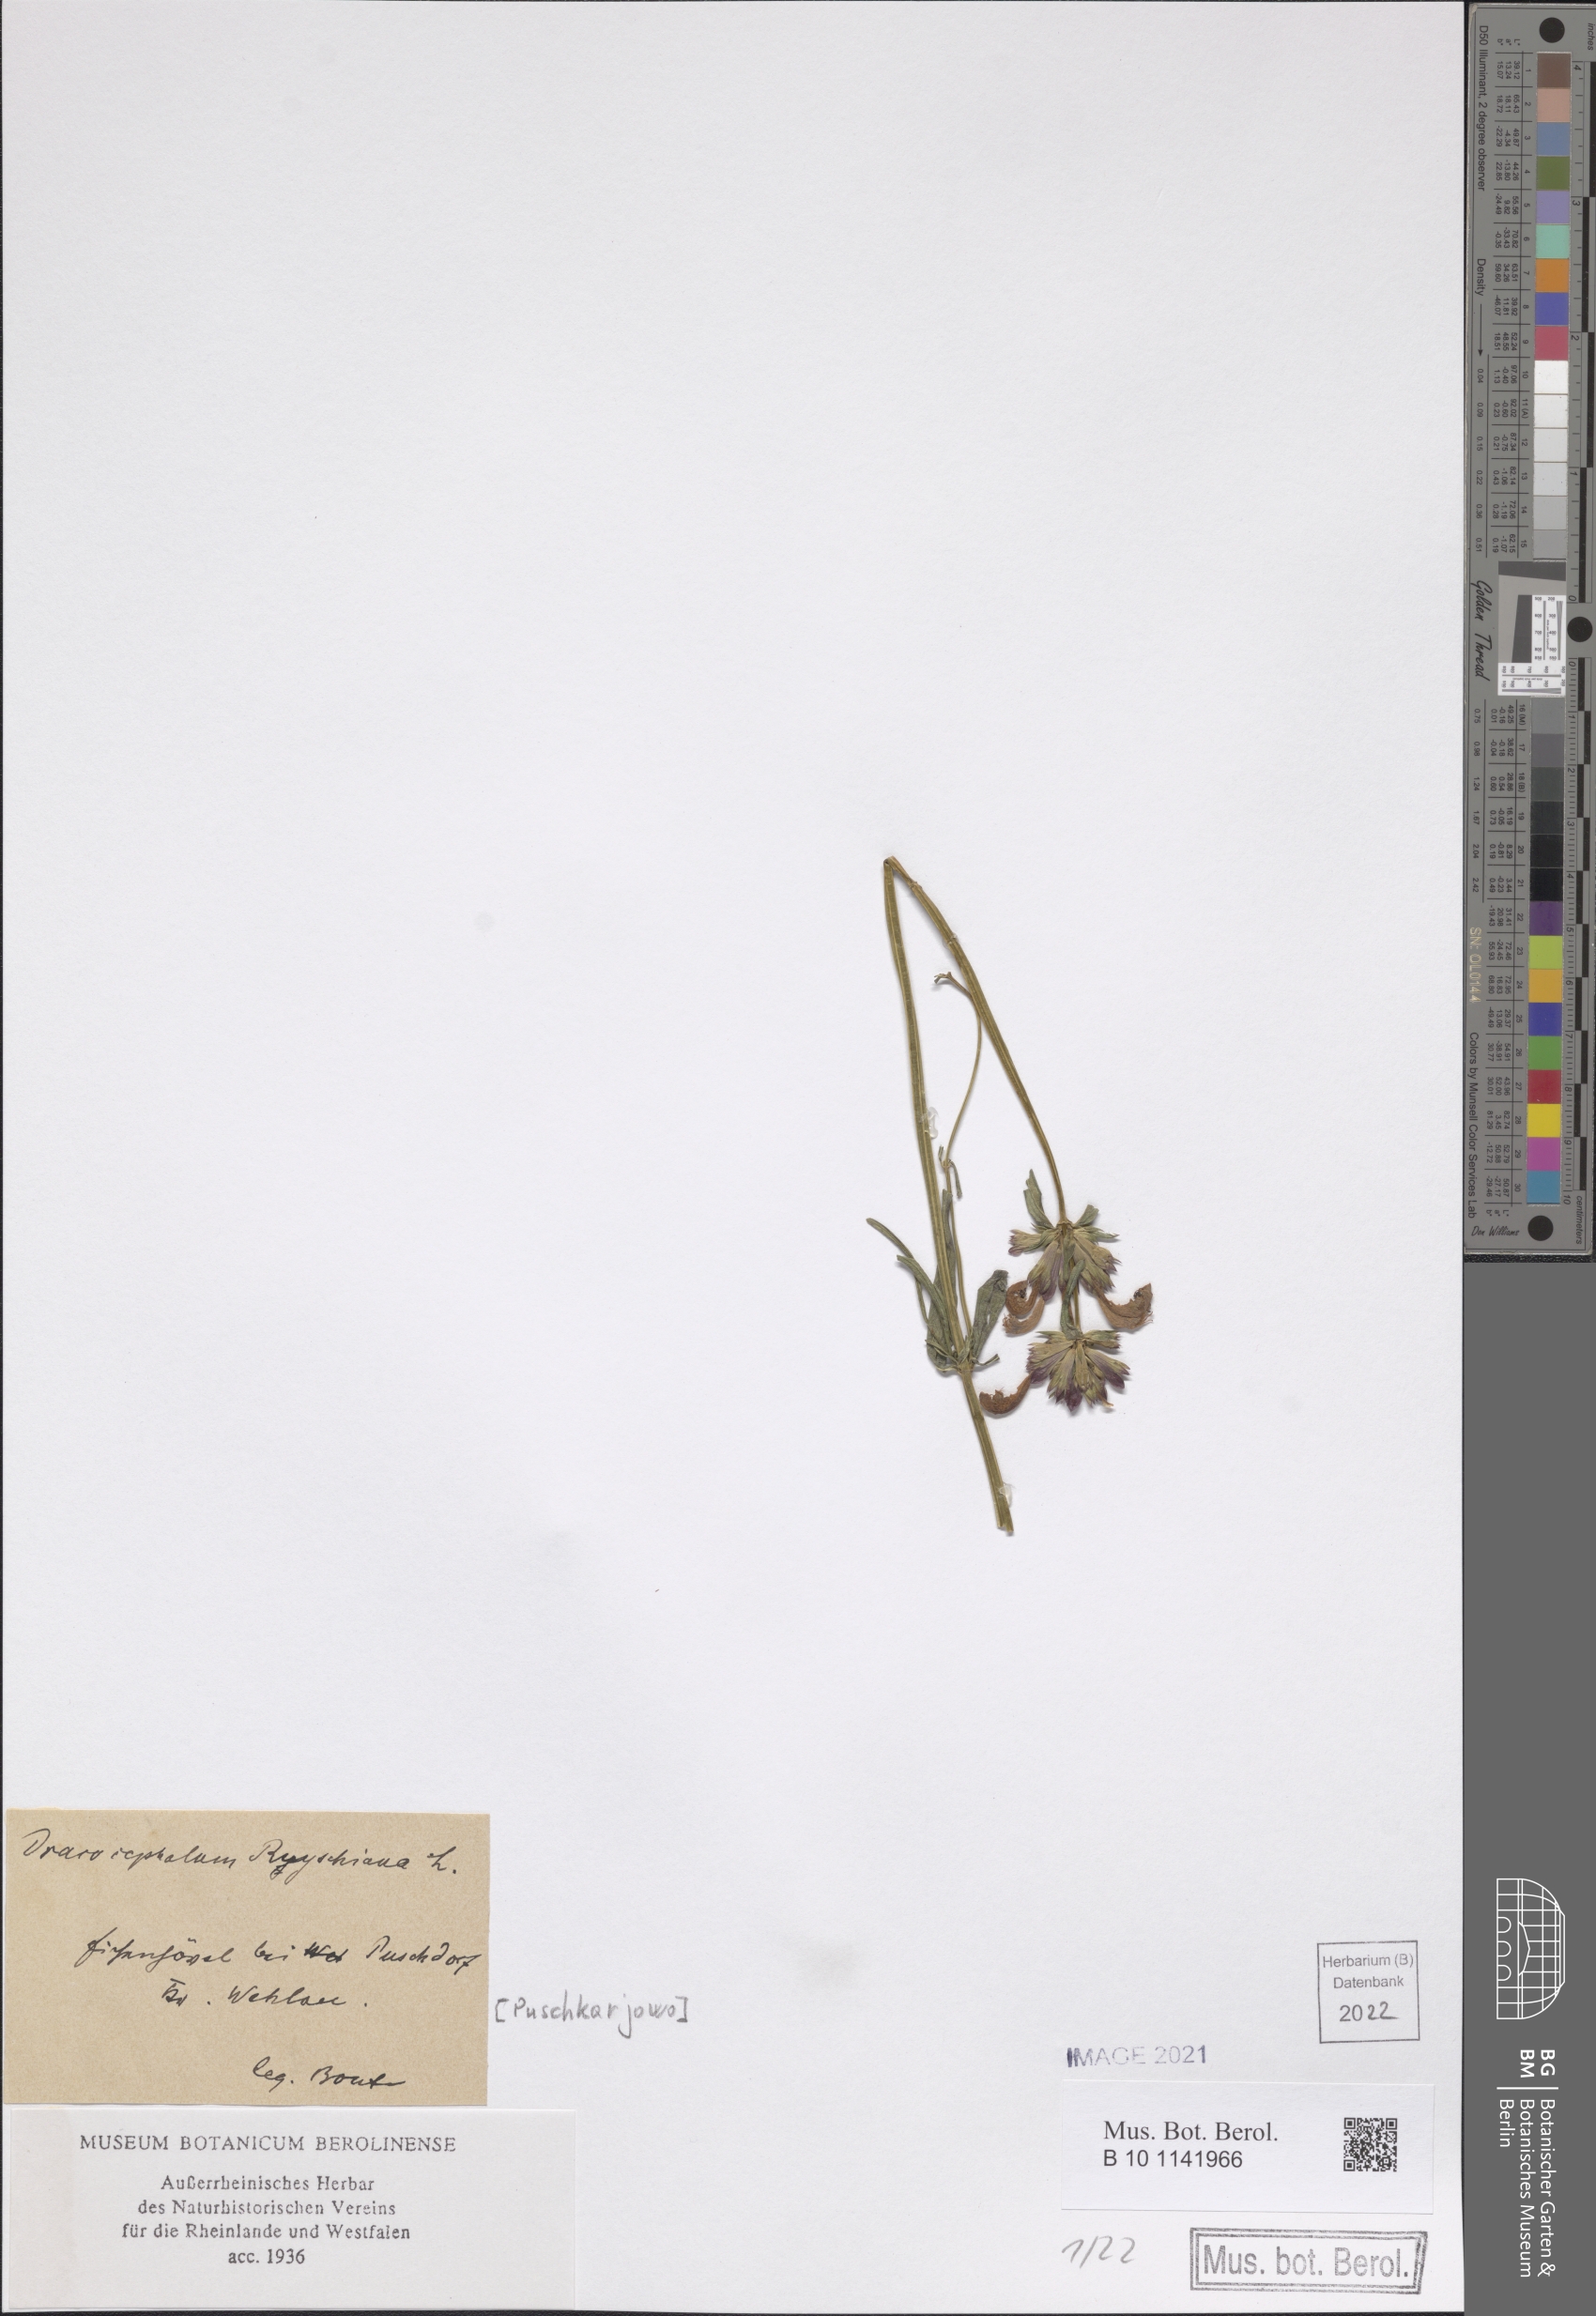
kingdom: Plantae
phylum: Tracheophyta
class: Magnoliopsida
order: Lamiales
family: Lamiaceae
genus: Dracocephalum
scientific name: Dracocephalum ruyschiana
